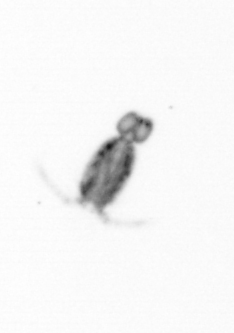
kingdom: Animalia
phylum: Arthropoda
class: Copepoda
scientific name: Copepoda
